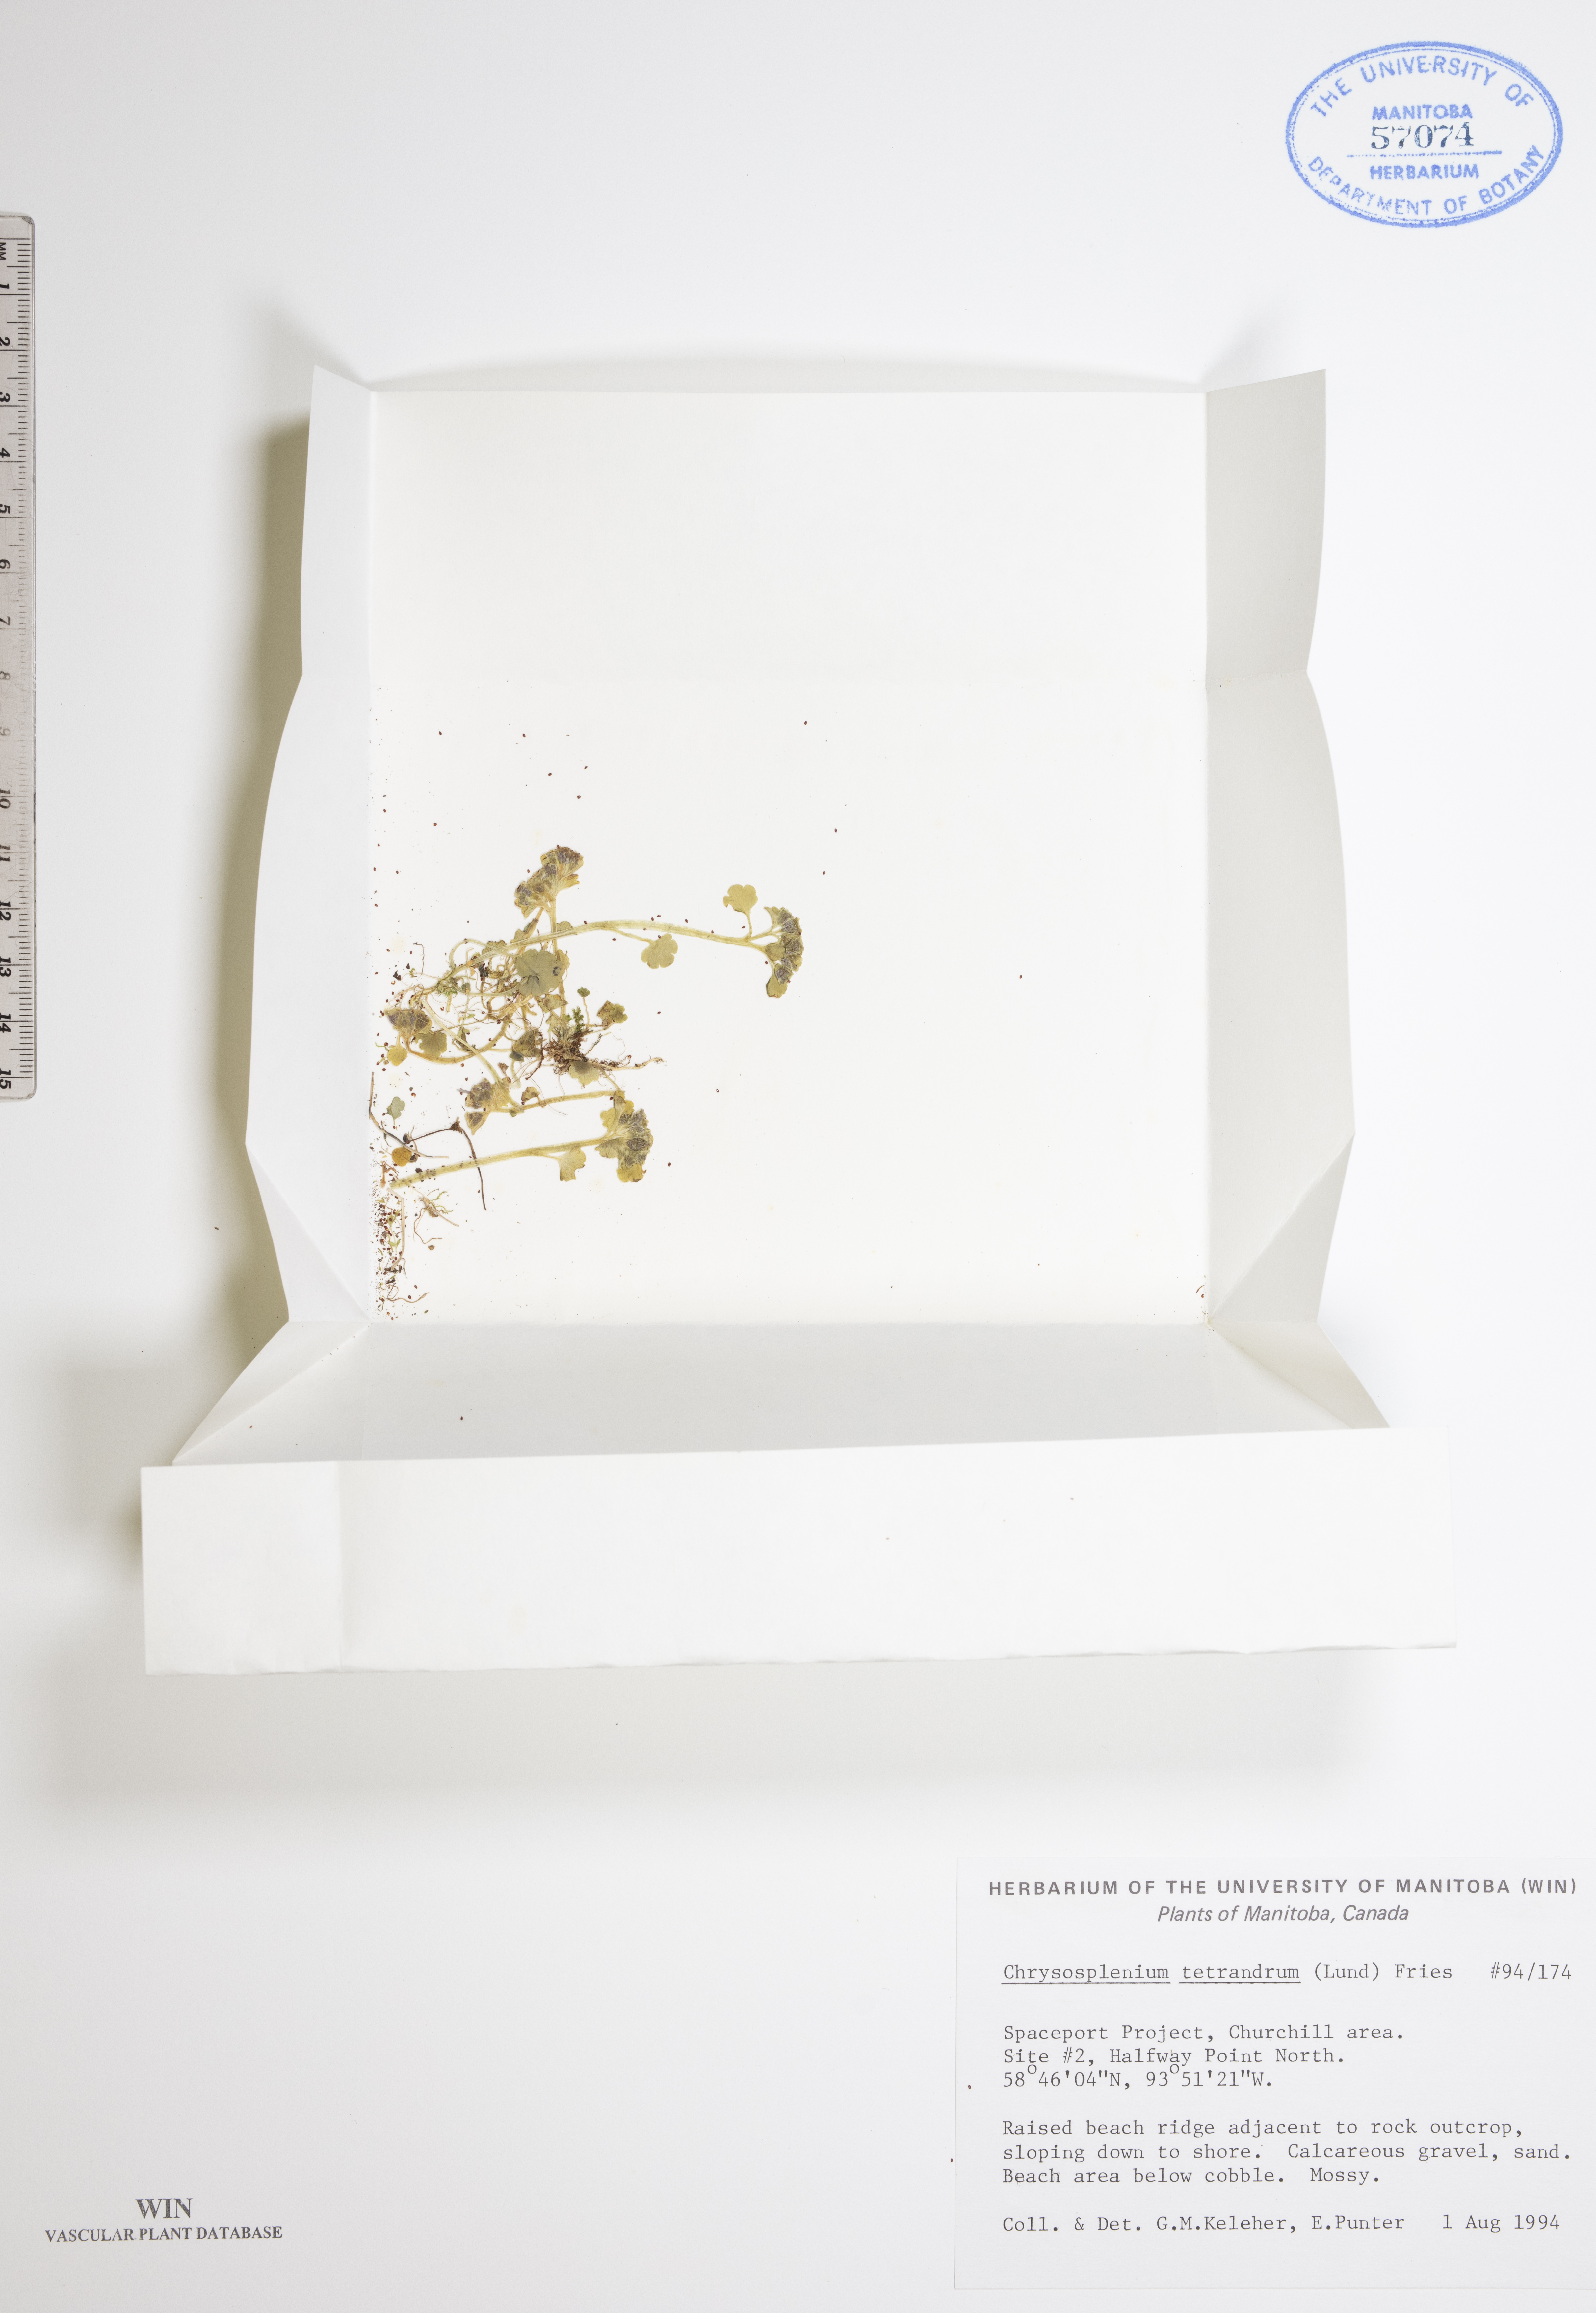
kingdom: Plantae
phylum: Tracheophyta
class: Magnoliopsida
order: Saxifragales
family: Saxifragaceae
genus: Chrysosplenium
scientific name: Chrysosplenium tetrandrum
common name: Green saxifrage
